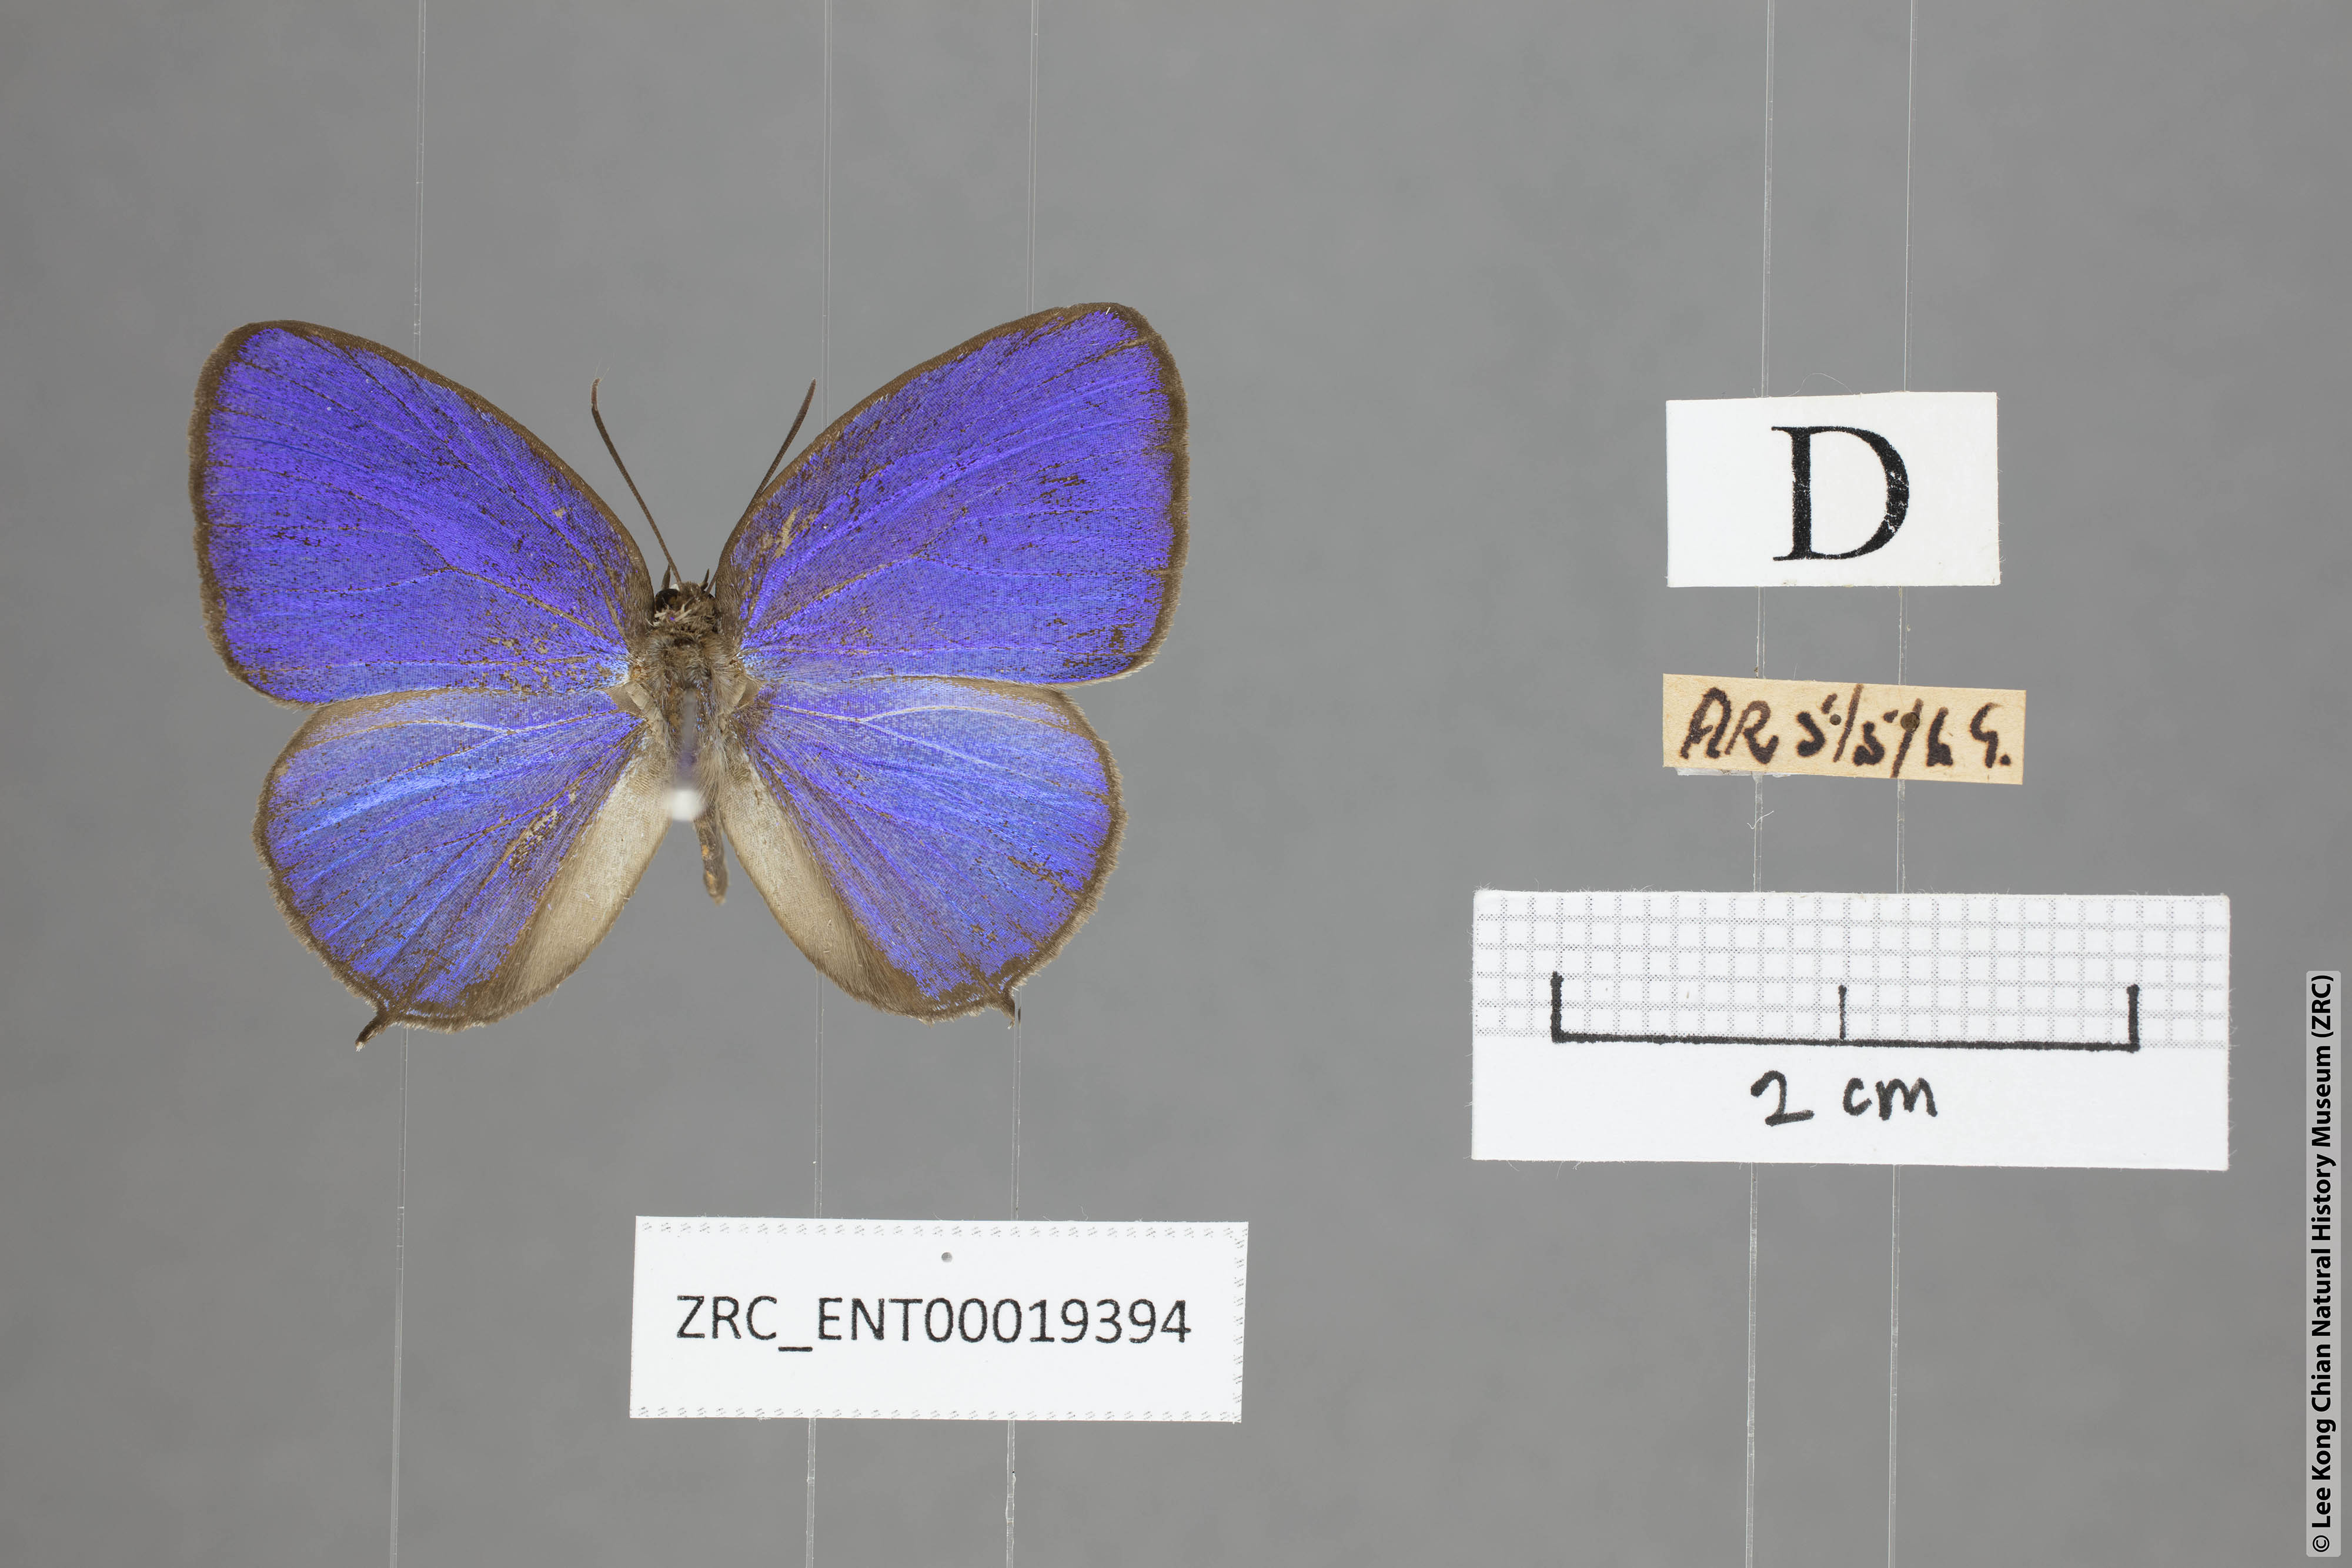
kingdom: Animalia
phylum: Arthropoda
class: Insecta
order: Lepidoptera
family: Lycaenidae
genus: Arhopala
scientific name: Arhopala democritus
